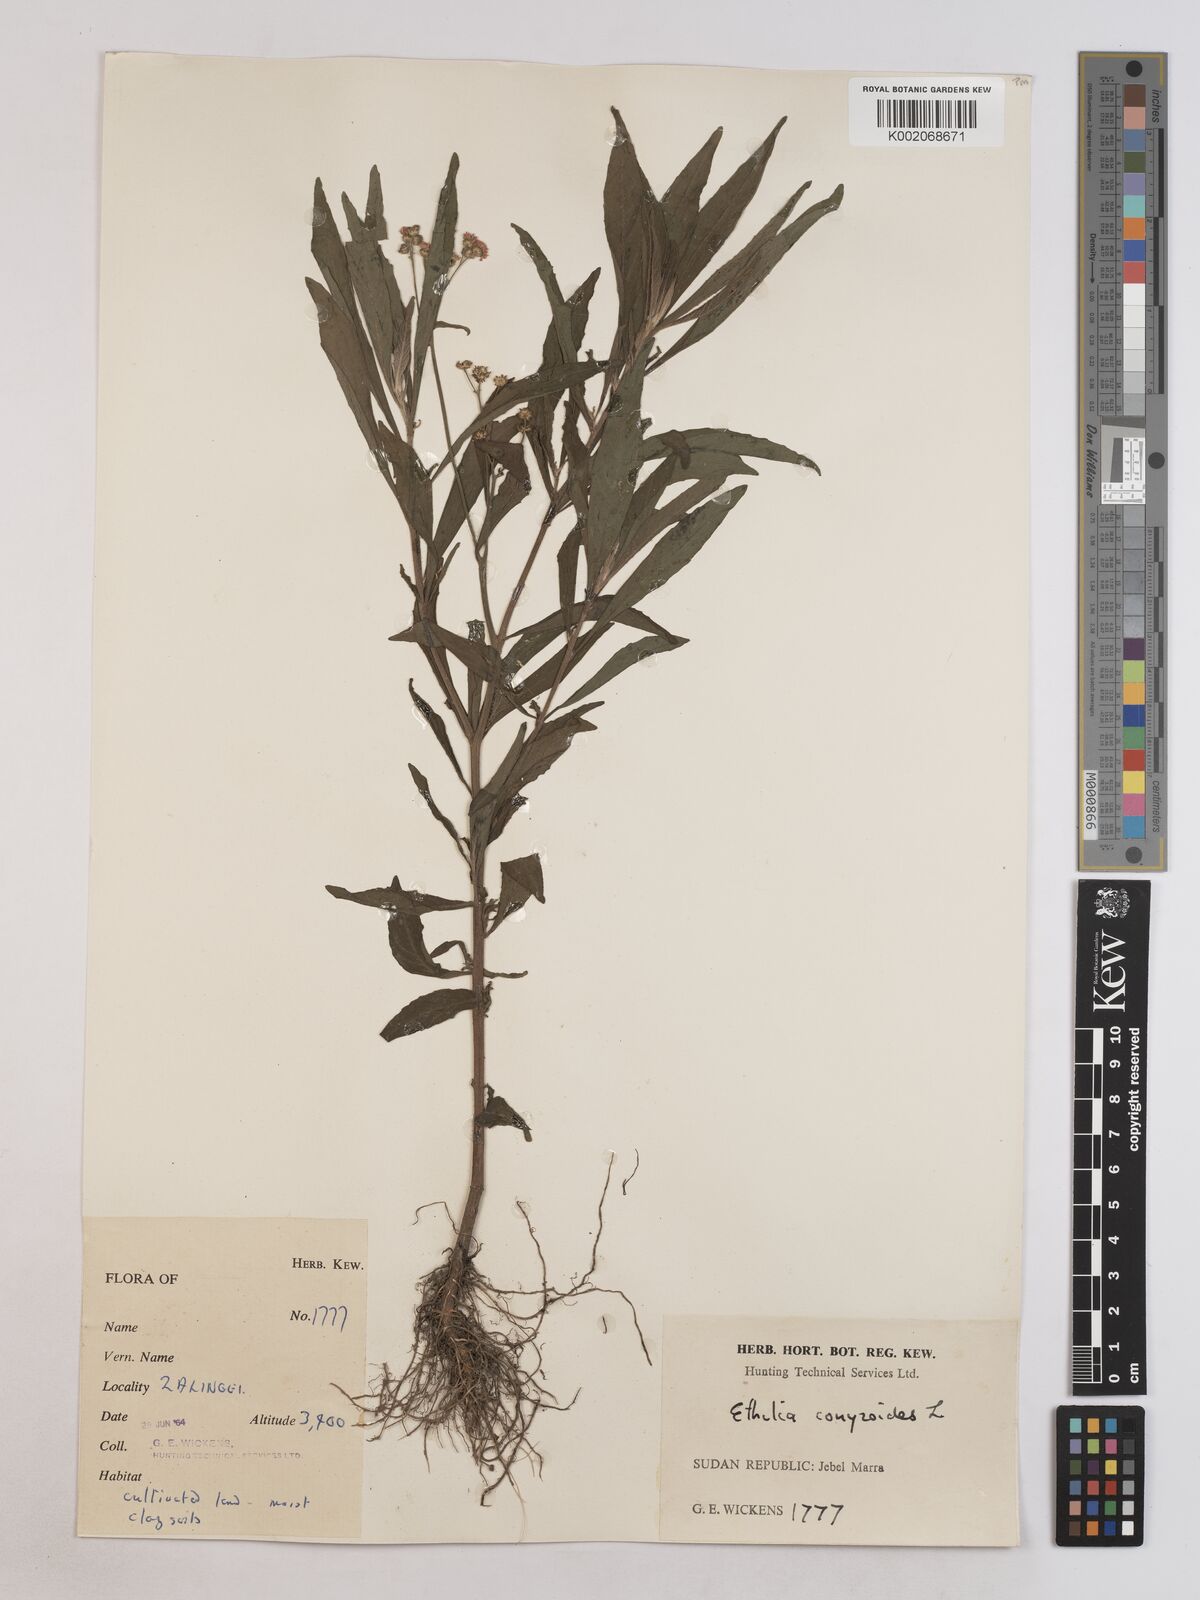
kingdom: Plantae
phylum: Tracheophyta
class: Magnoliopsida
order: Asterales
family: Asteraceae
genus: Ethulia
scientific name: Ethulia gracilis
